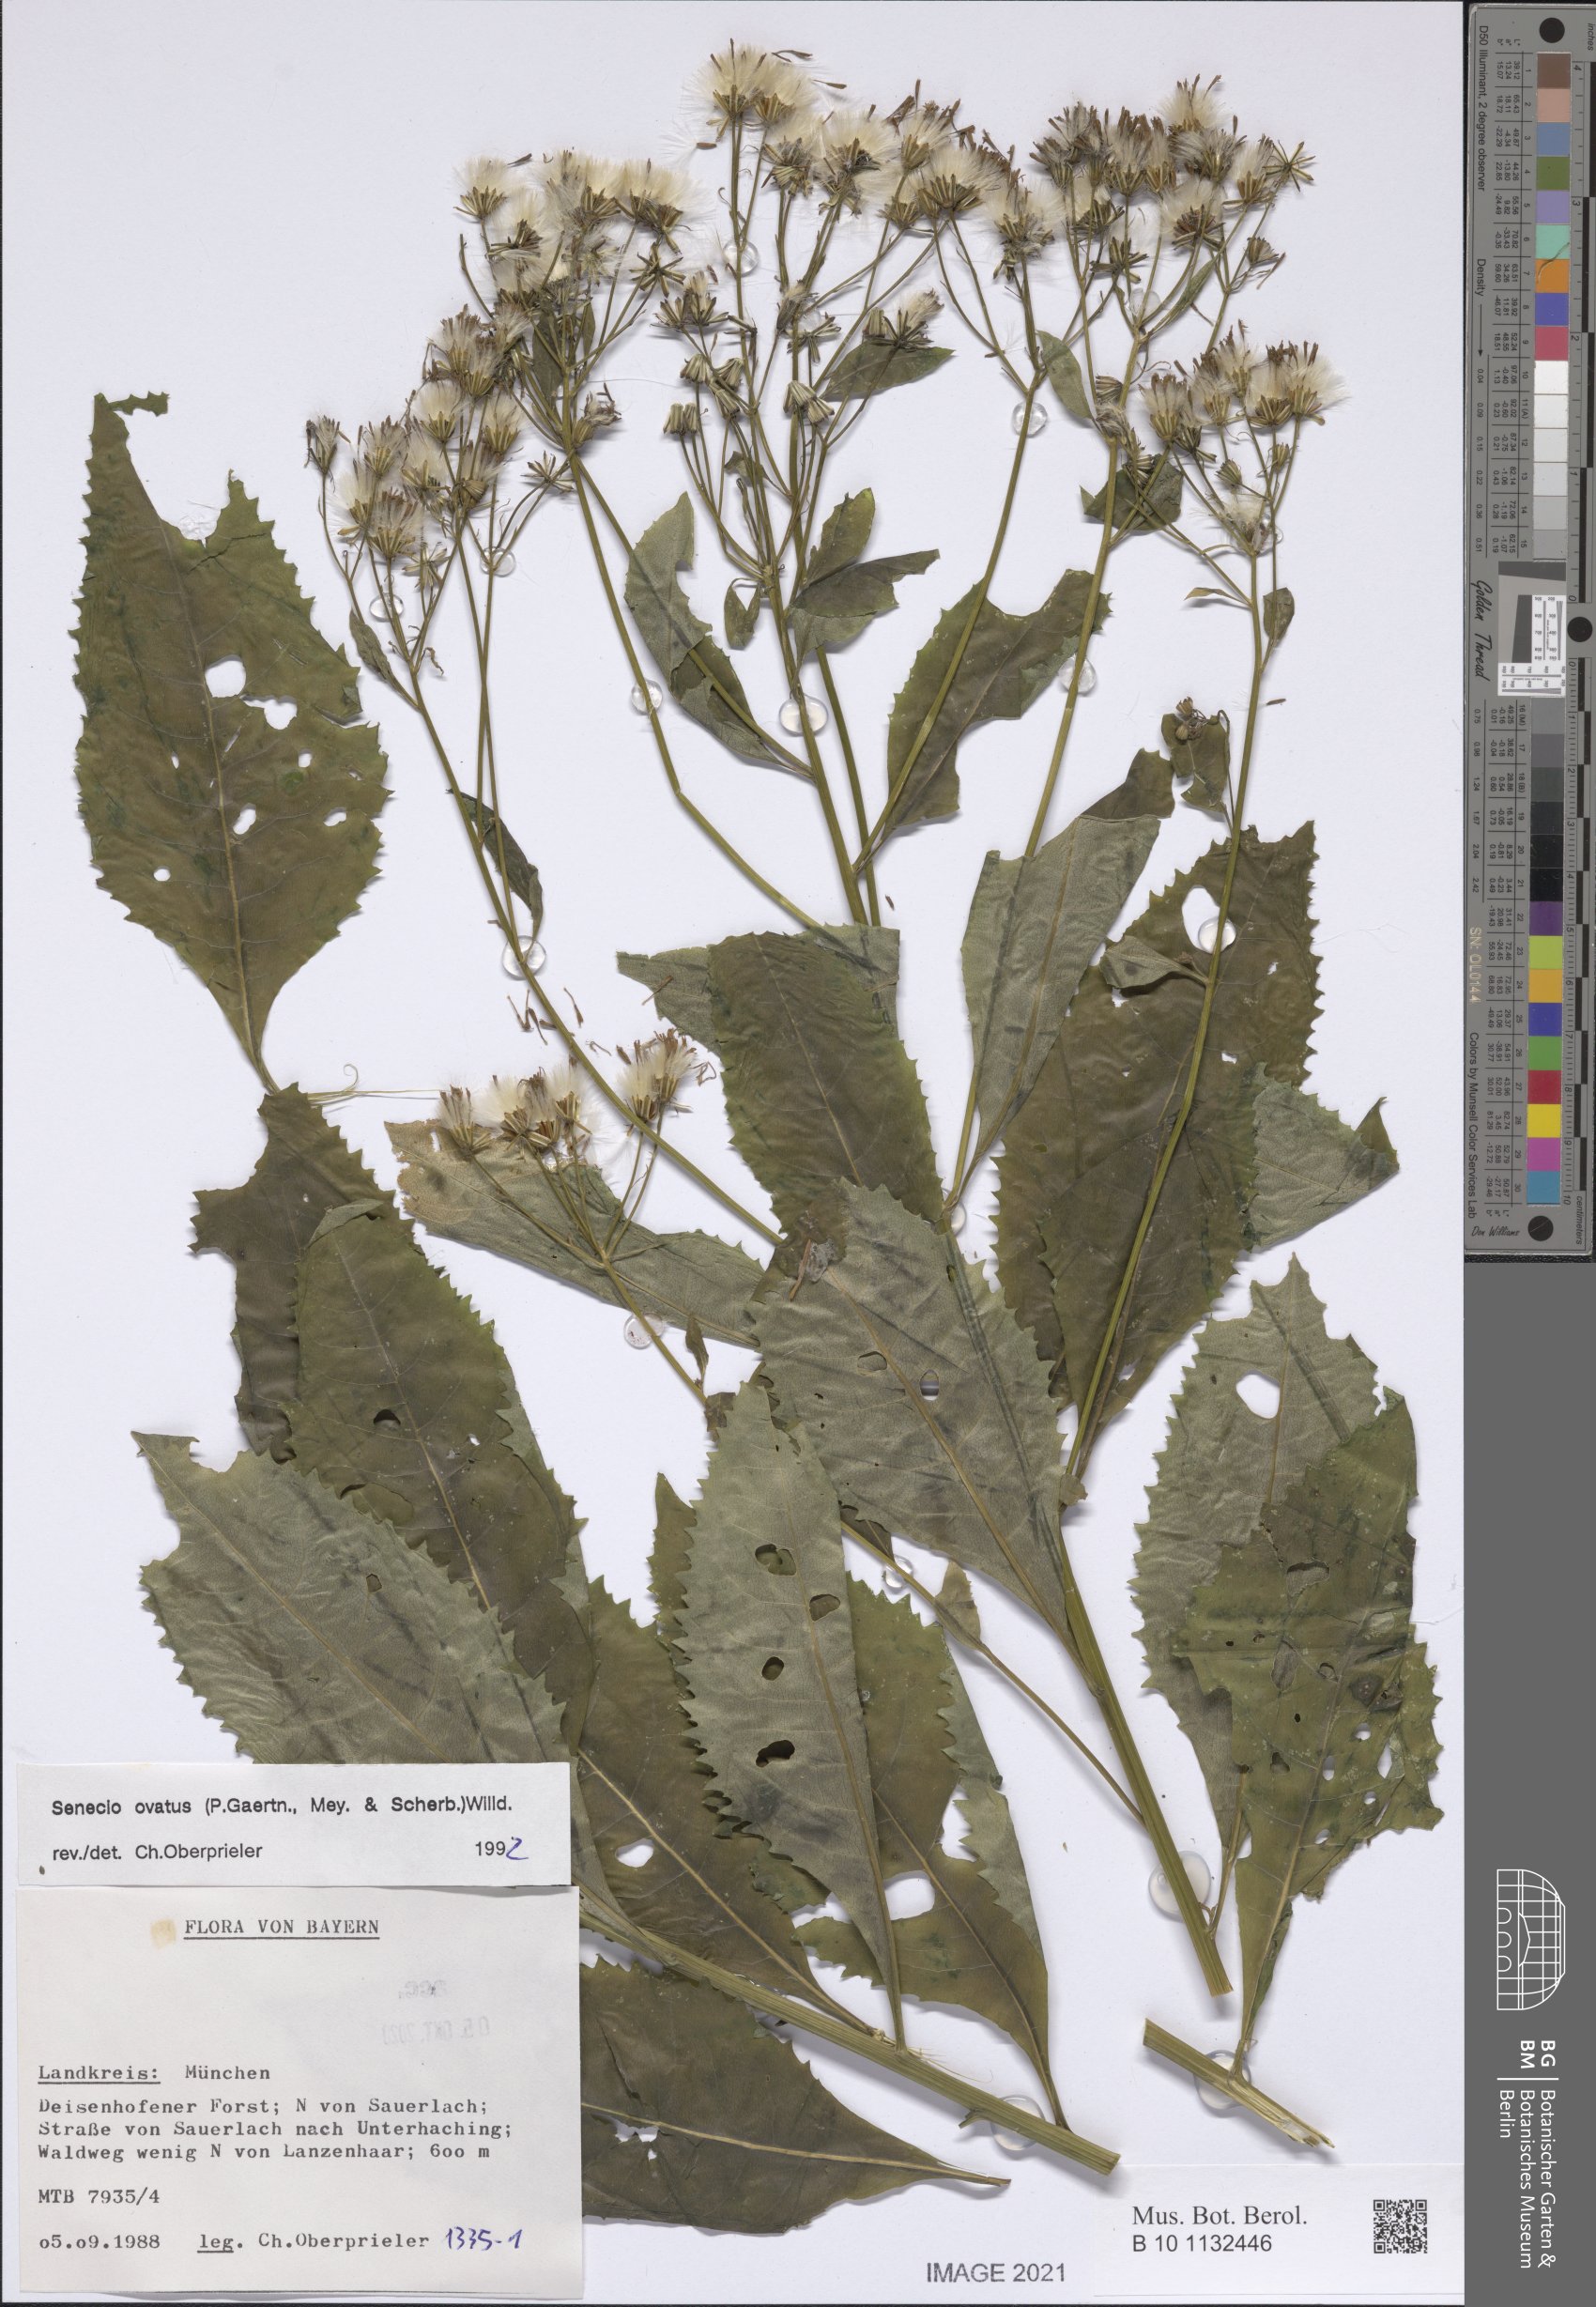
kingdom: Plantae
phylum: Tracheophyta
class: Magnoliopsida
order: Asterales
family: Asteraceae
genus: Senecio
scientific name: Senecio ovatus
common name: Wood ragwort
